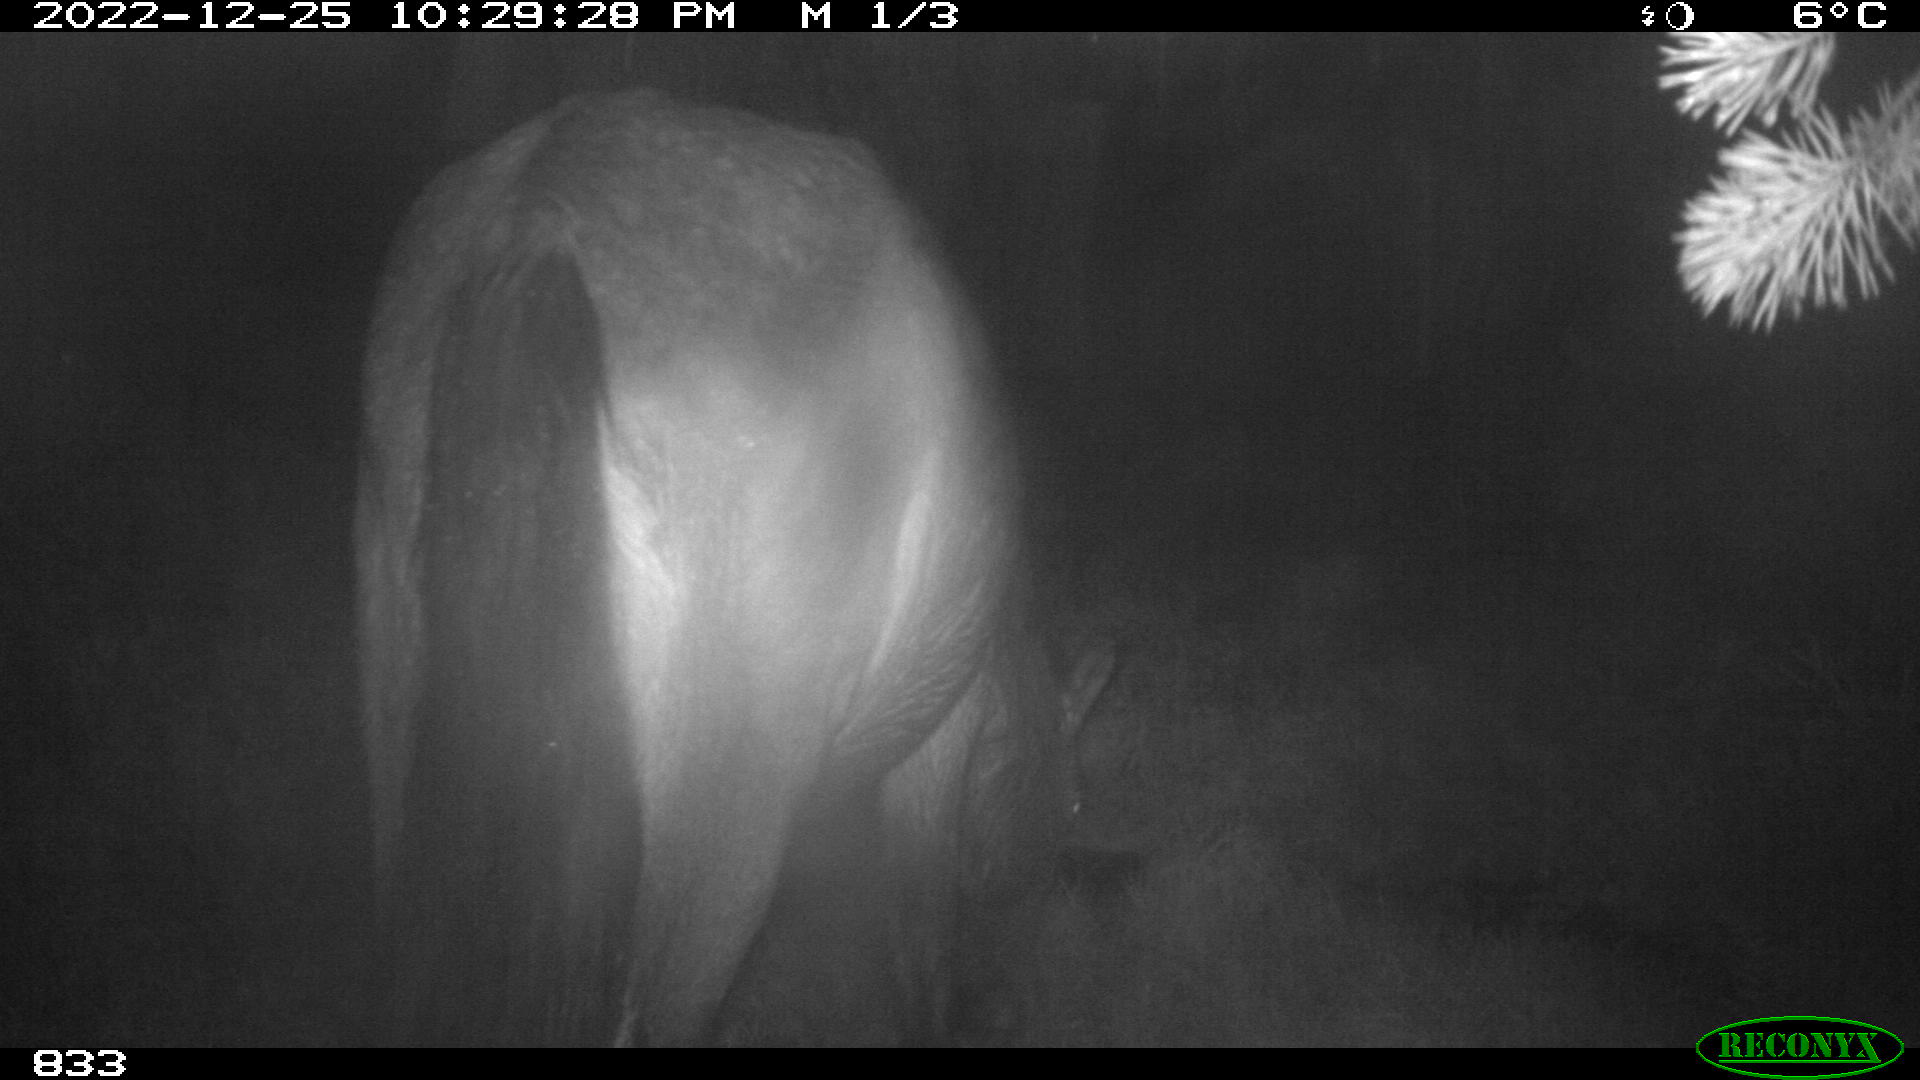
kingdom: Animalia
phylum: Chordata
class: Mammalia
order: Perissodactyla
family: Equidae
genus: Equus
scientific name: Equus caballus
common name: Horse
